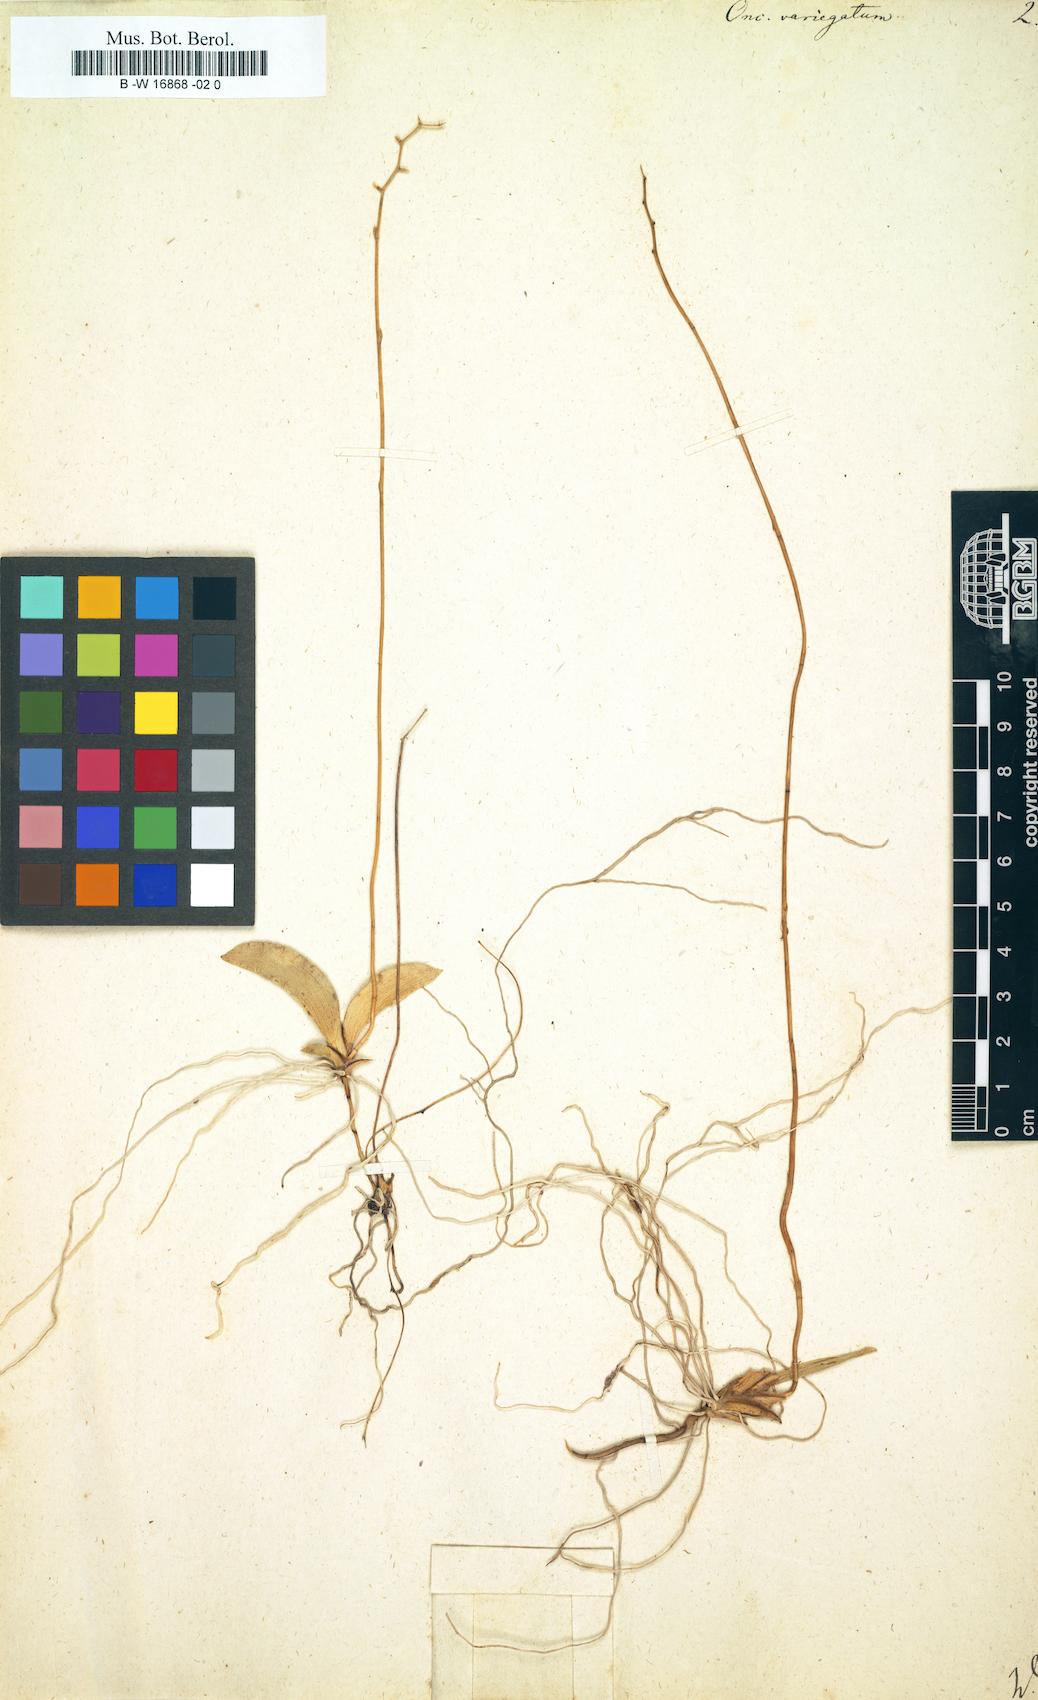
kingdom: Plantae
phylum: Tracheophyta
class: Liliopsida
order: Asparagales
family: Orchidaceae
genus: Oncidium
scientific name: Oncidium variegatum
